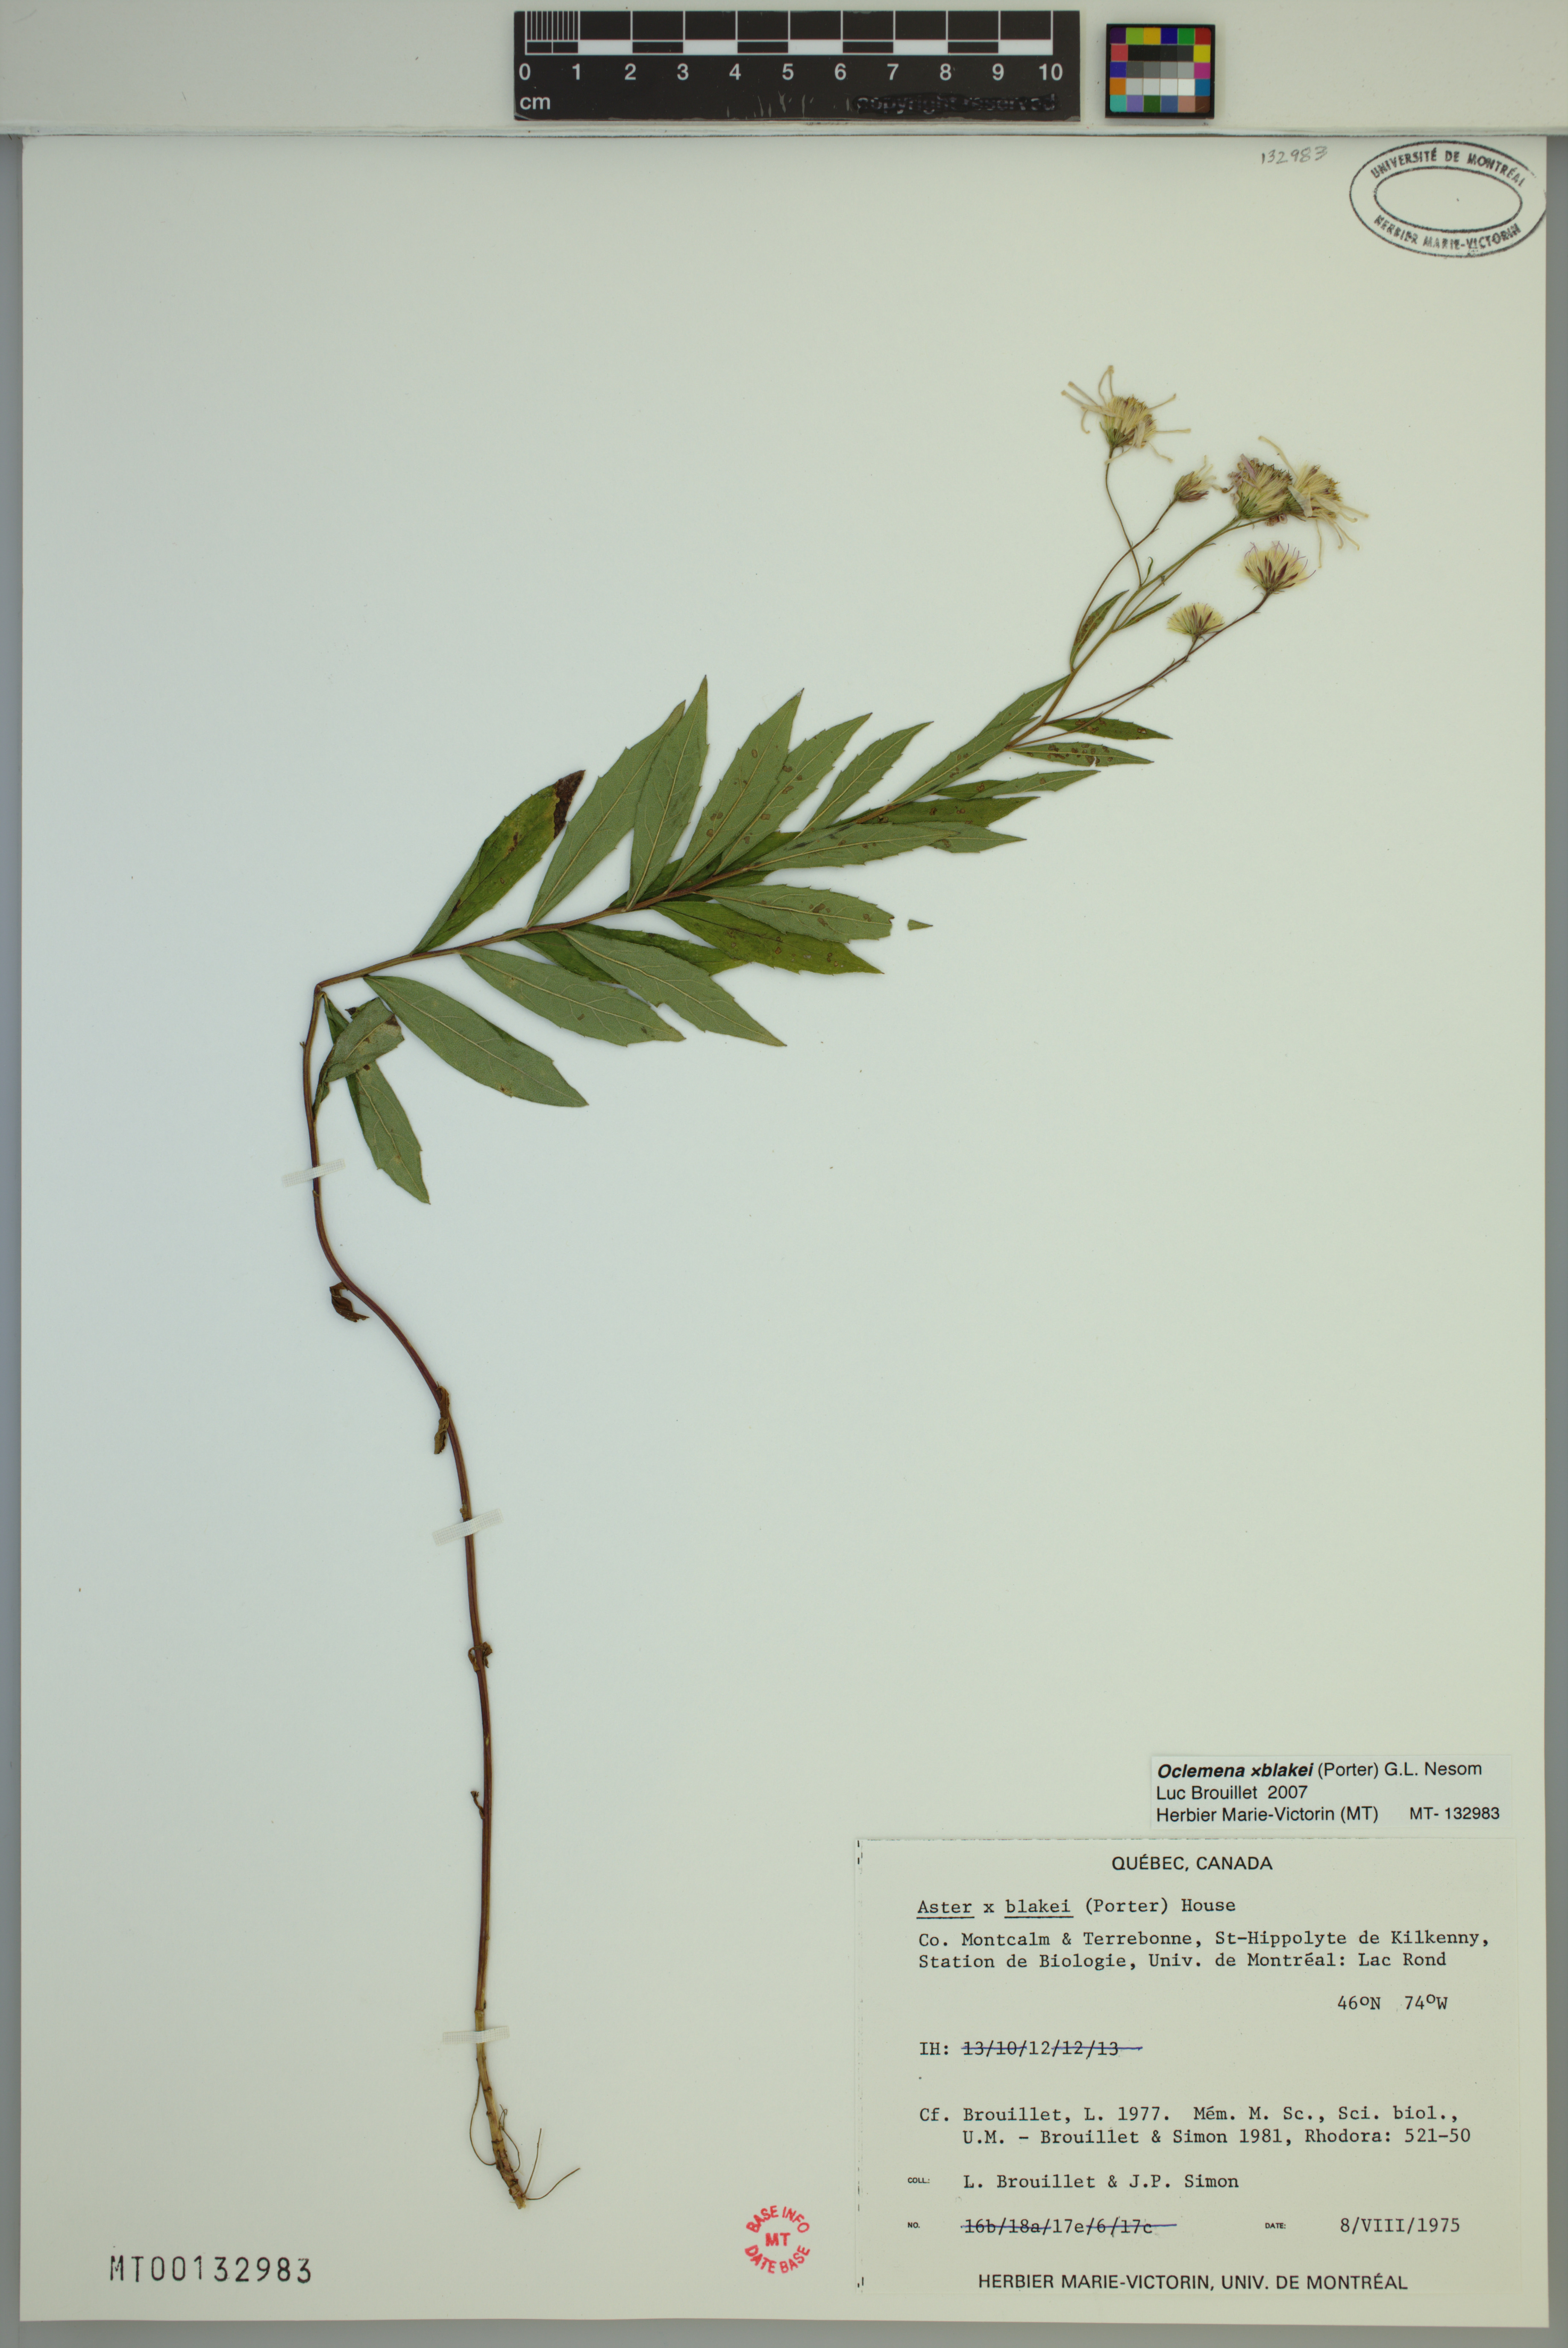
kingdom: Plantae
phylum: Tracheophyta
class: Magnoliopsida
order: Asterales
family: Asteraceae
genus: Oclemena
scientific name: Oclemena blakei
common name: Blake's aster
